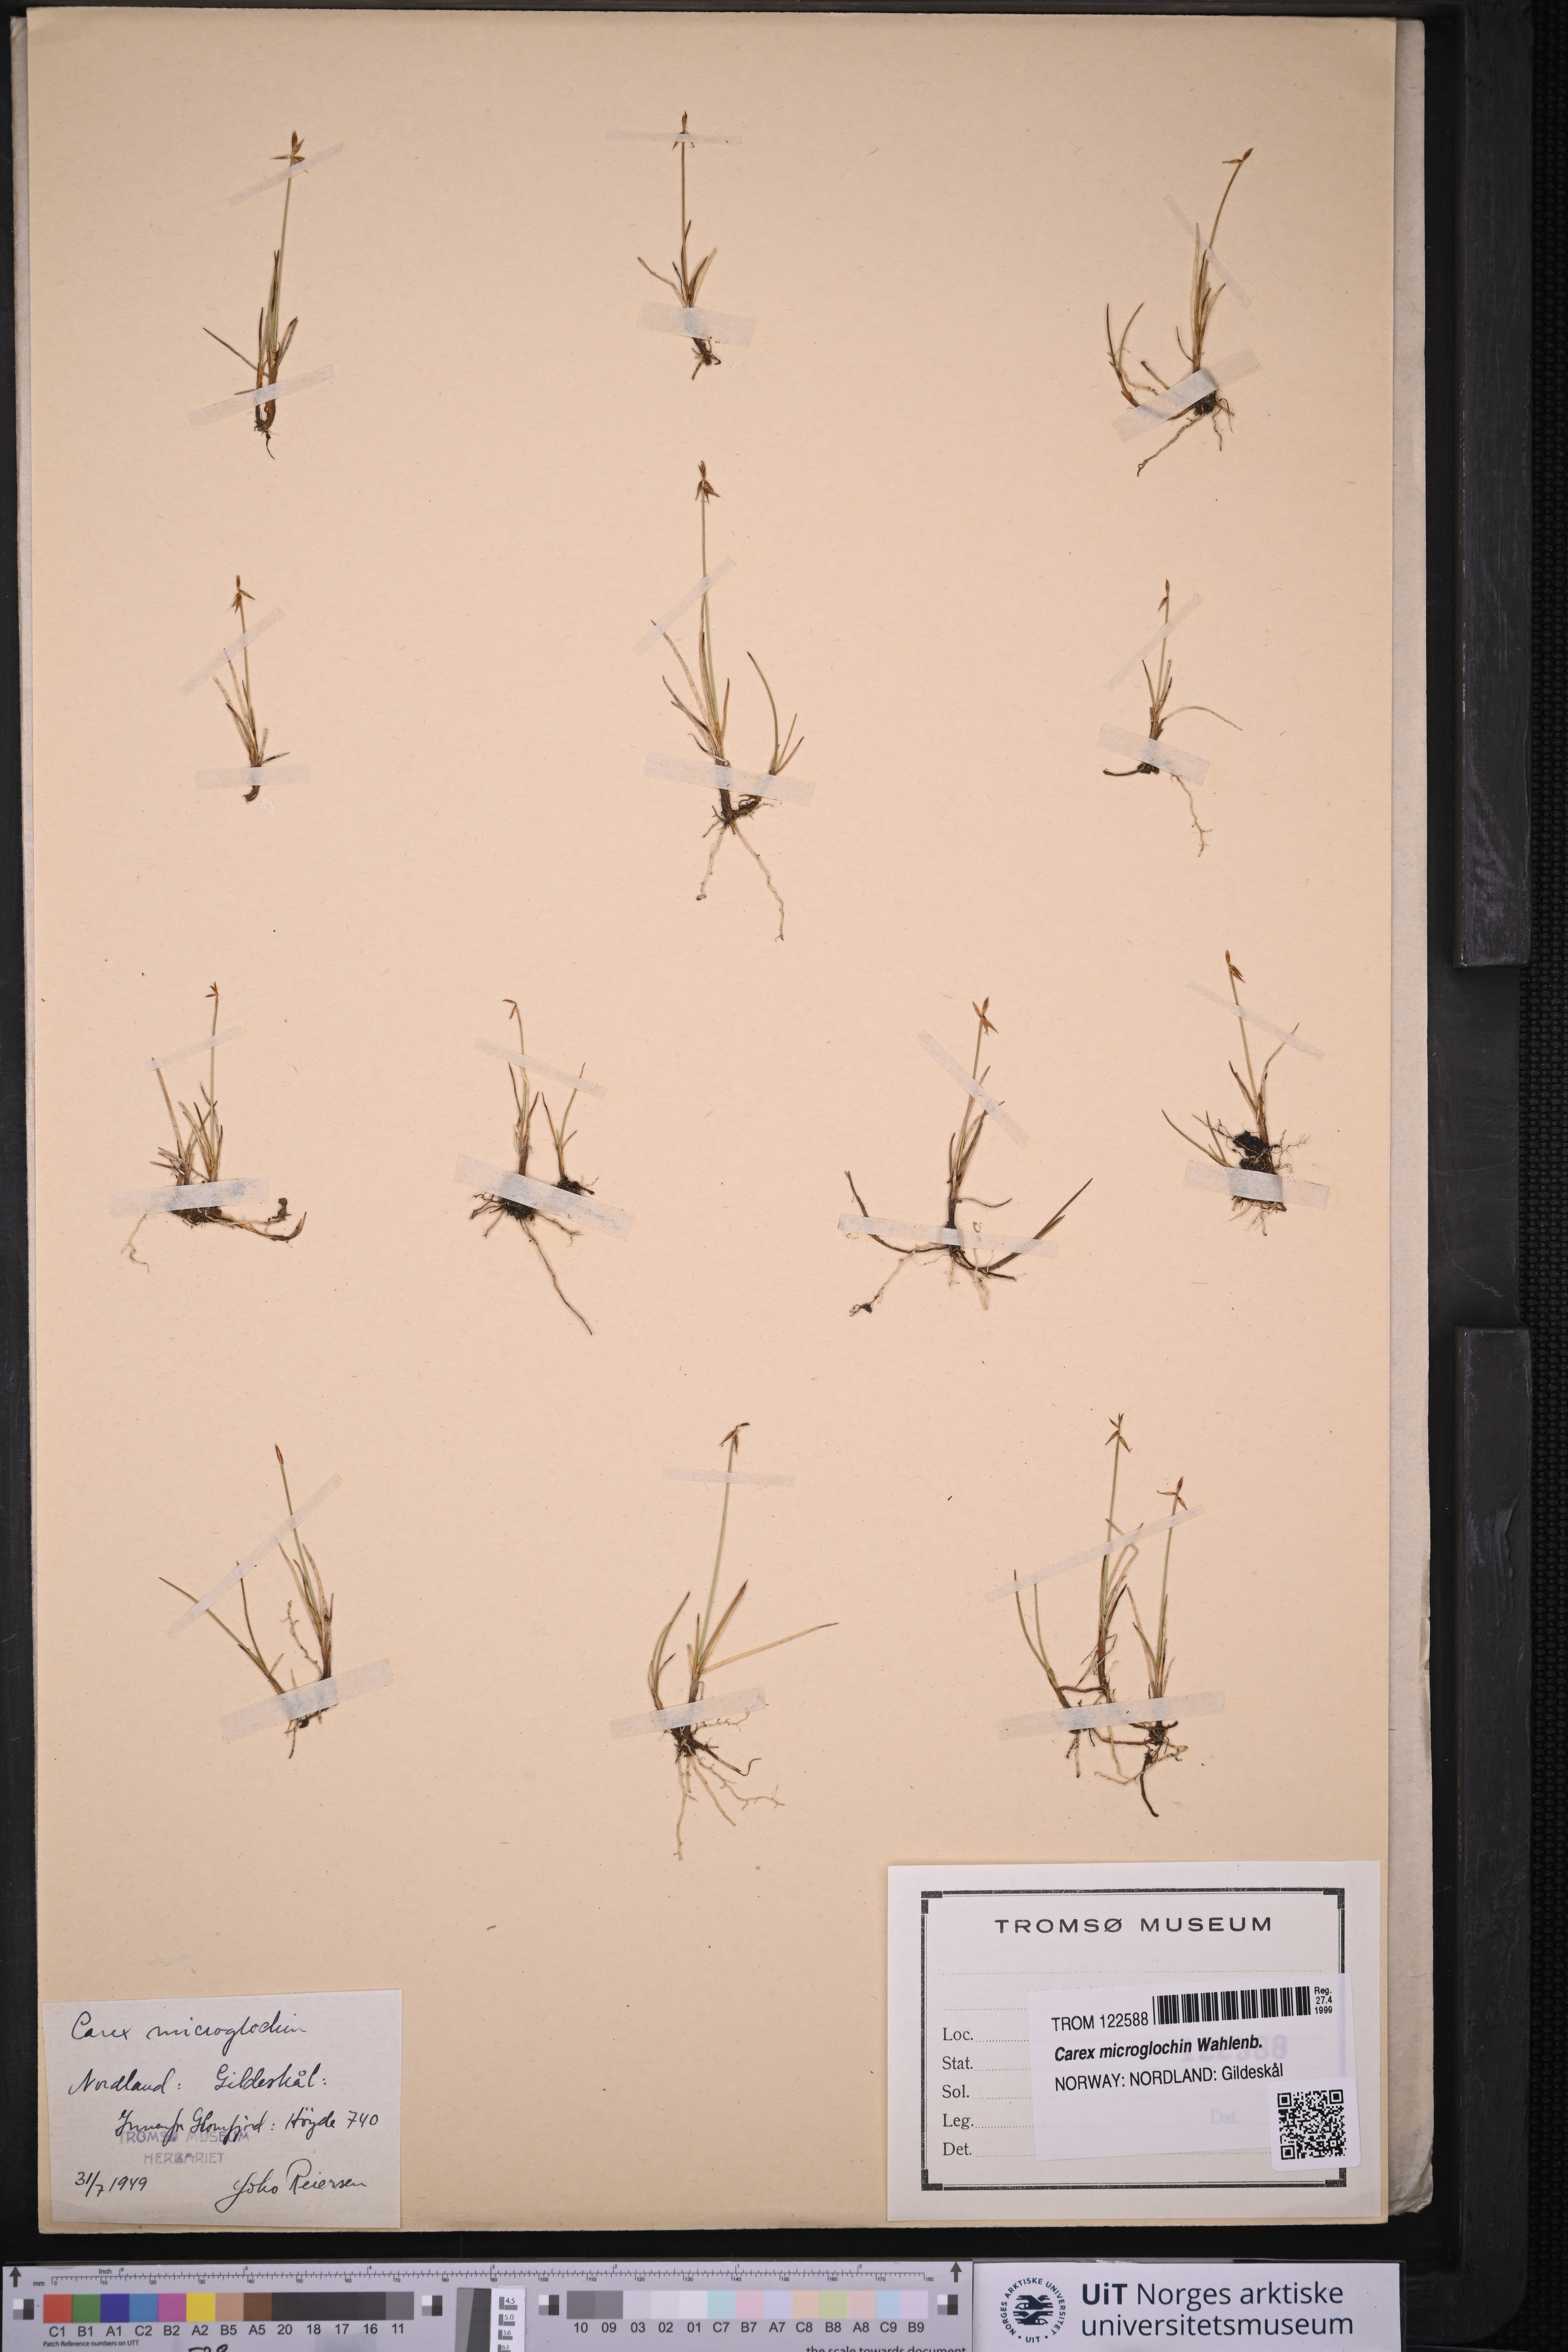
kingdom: Plantae
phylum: Tracheophyta
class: Liliopsida
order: Poales
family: Cyperaceae
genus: Carex
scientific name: Carex microglochin
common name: Bristle sedge
